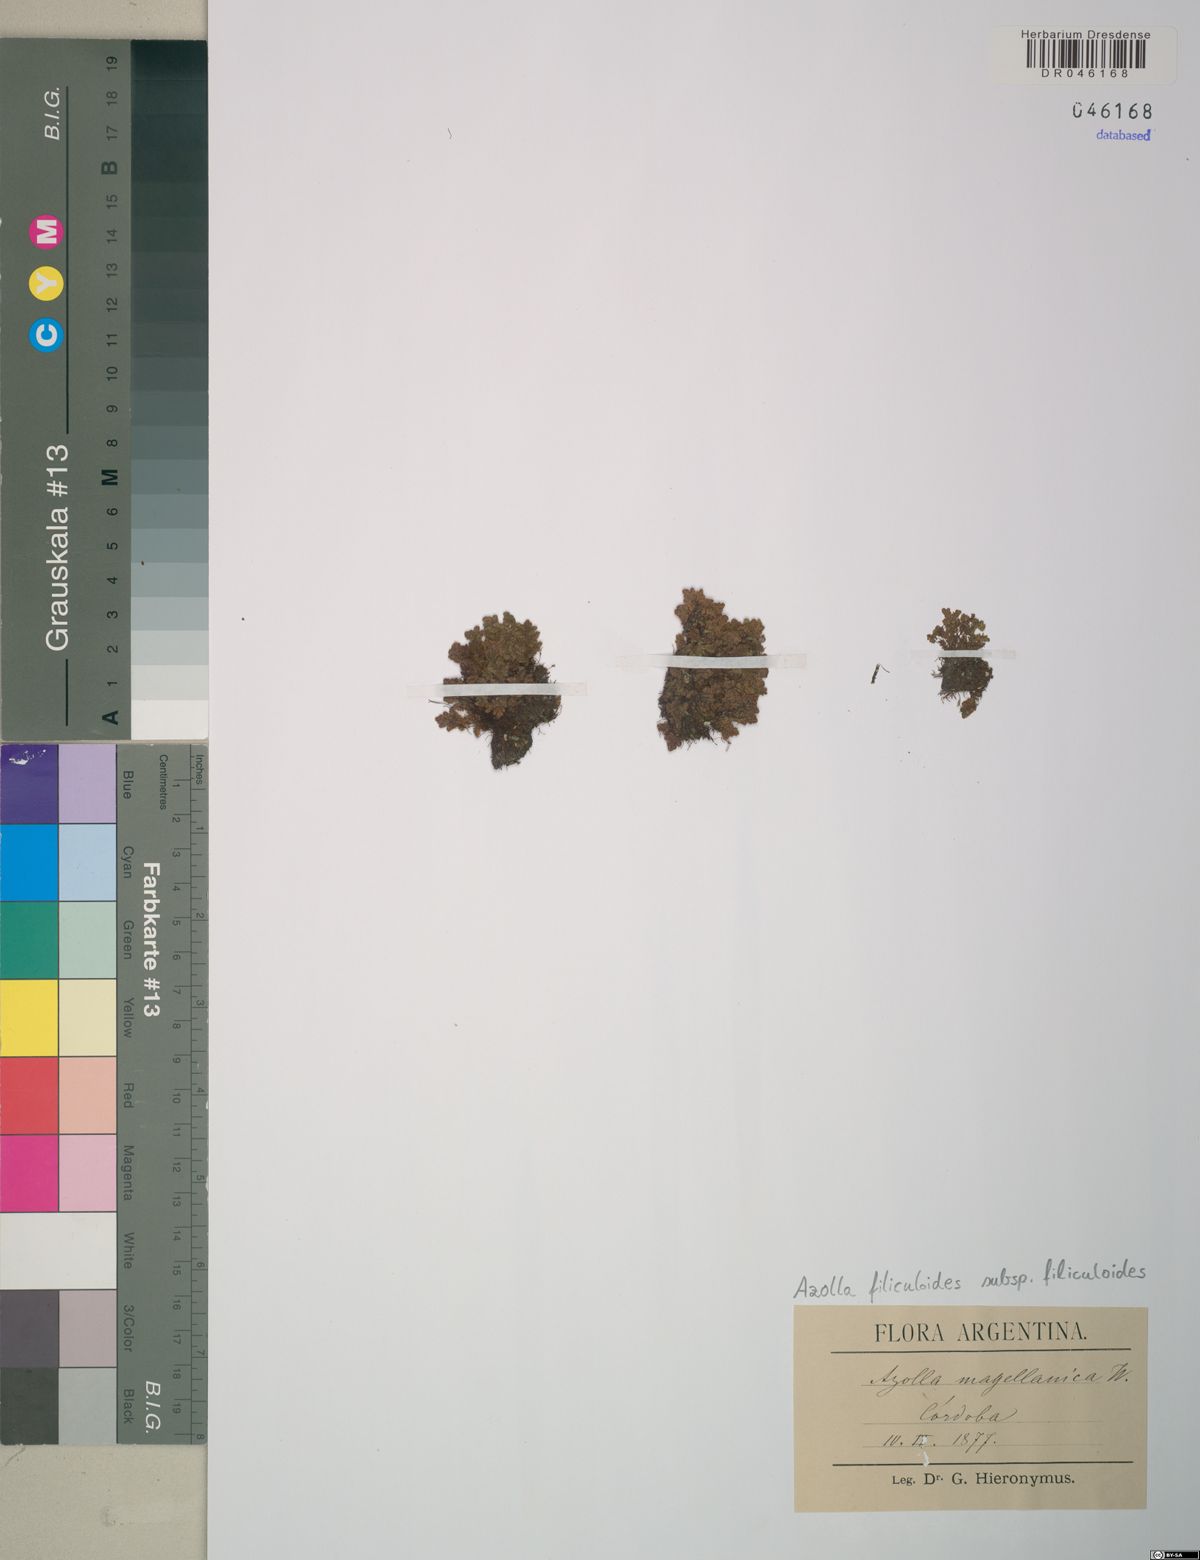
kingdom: Plantae
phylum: Tracheophyta
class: Polypodiopsida
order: Salviniales
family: Salviniaceae
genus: Azolla
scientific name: Azolla filiculoides
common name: Water fern
